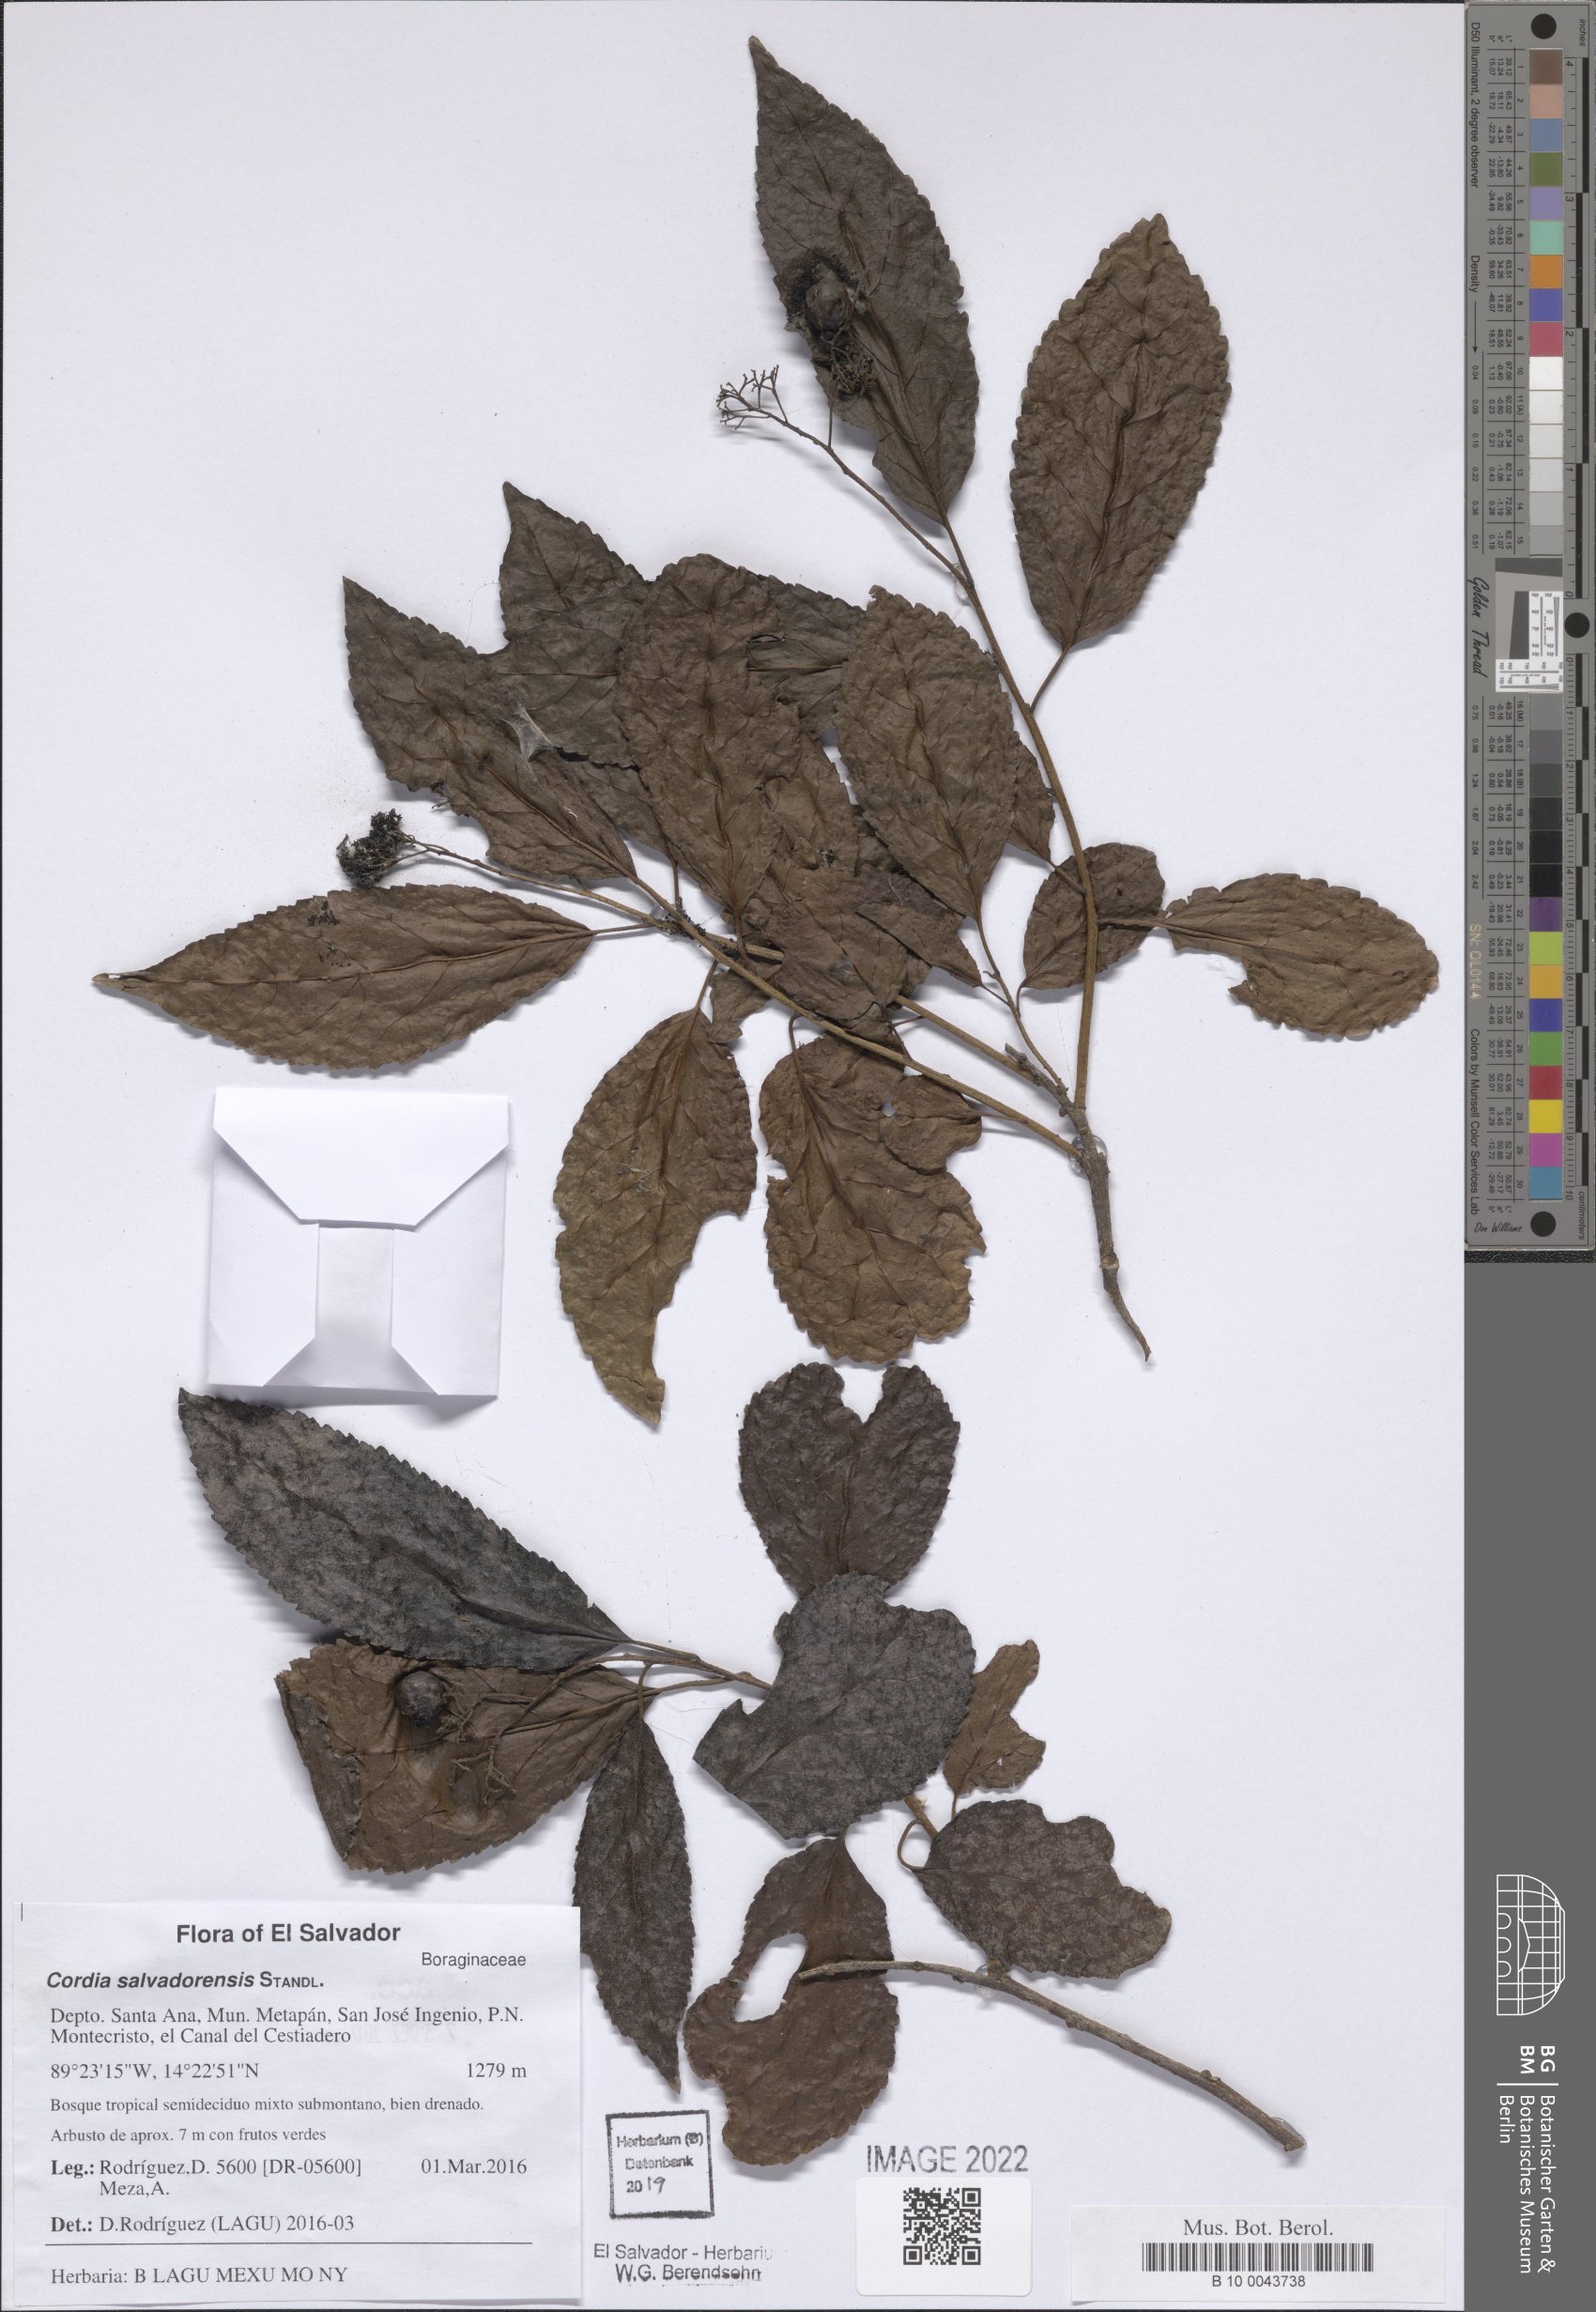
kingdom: Plantae
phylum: Tracheophyta
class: Magnoliopsida
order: Boraginales
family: Cordiaceae
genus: Cordia
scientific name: Cordia salvadorensis
